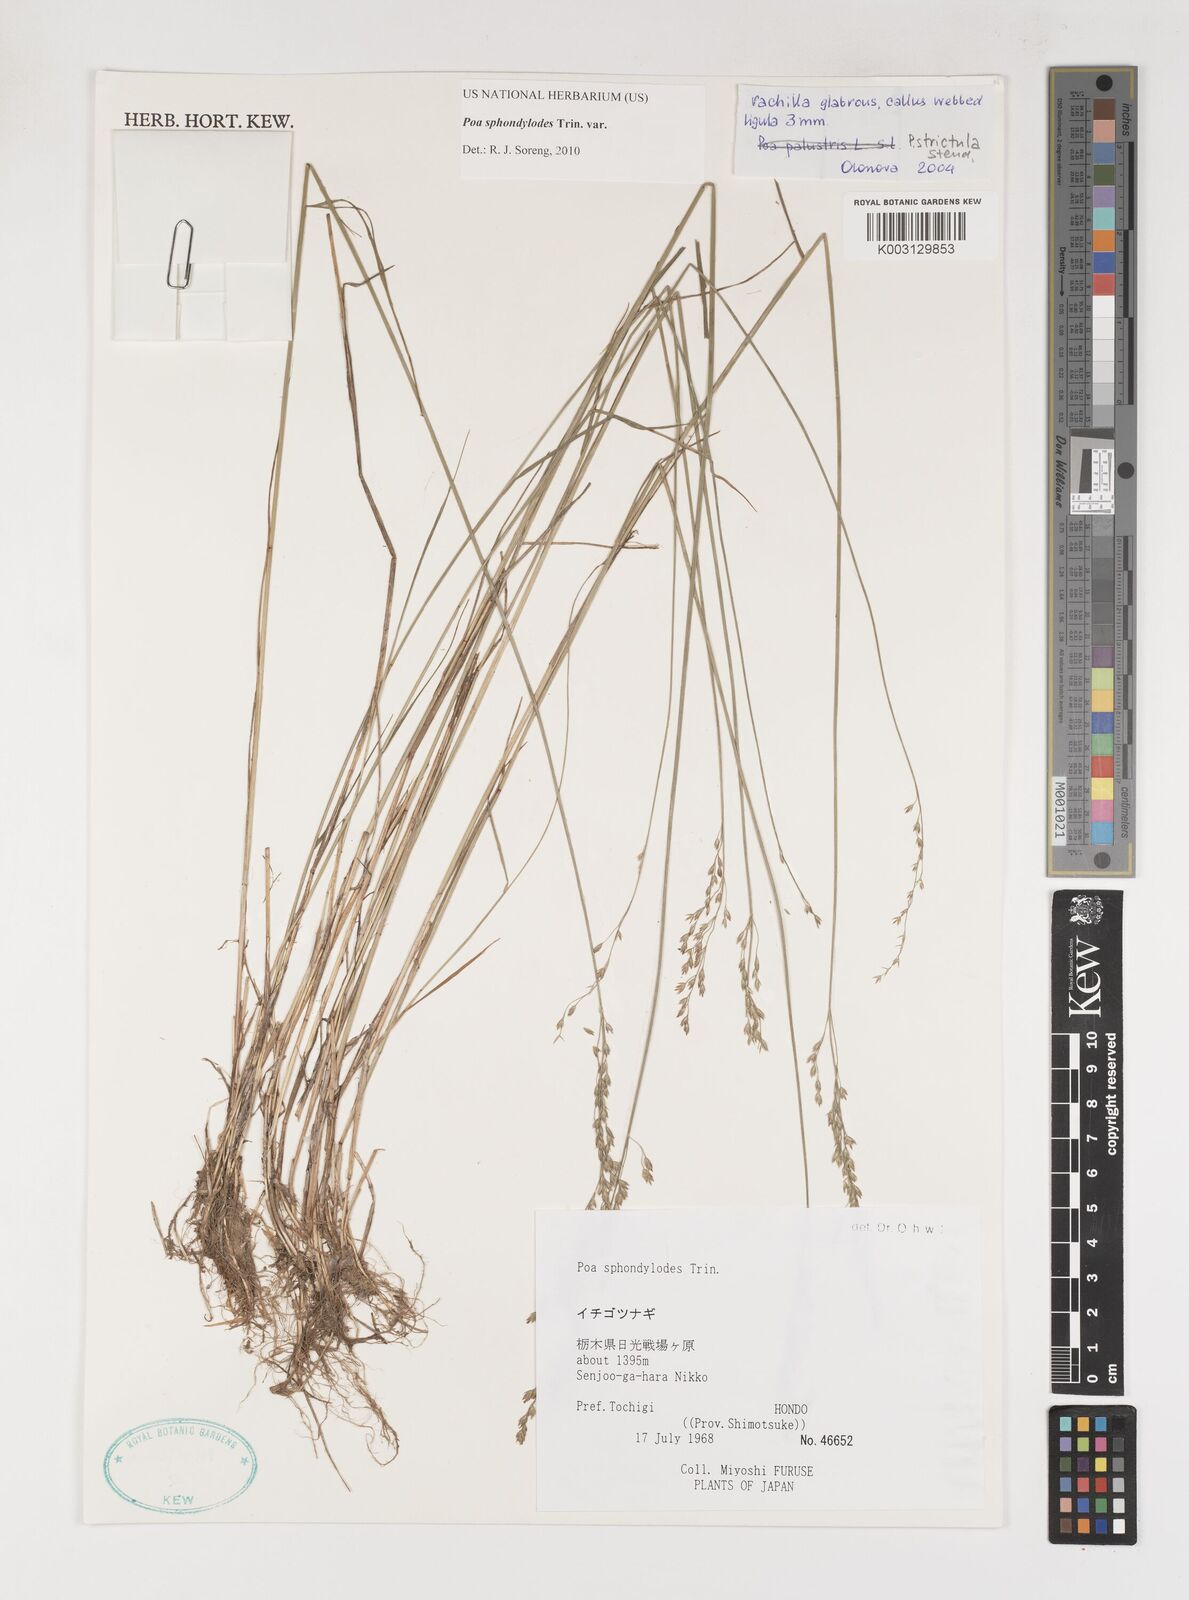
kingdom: Plantae
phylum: Tracheophyta
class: Liliopsida
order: Poales
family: Poaceae
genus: Poa
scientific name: Poa sphondylodes
